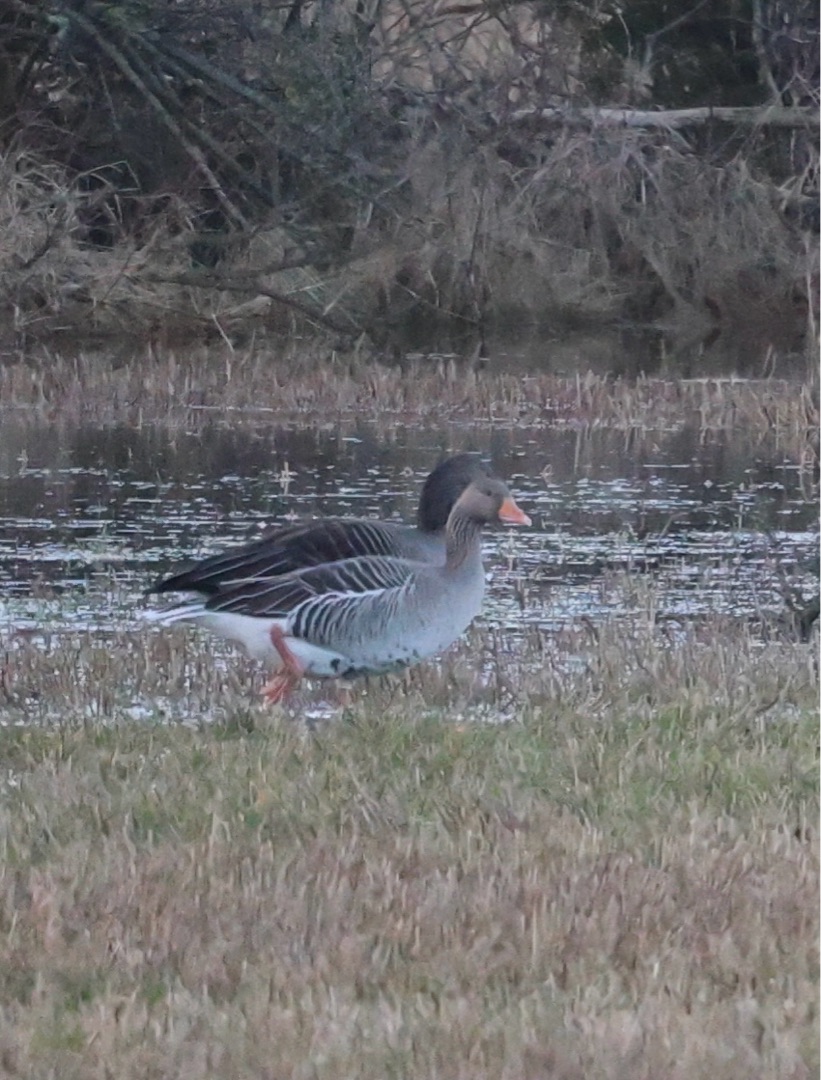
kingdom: Animalia
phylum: Chordata
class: Aves
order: Anseriformes
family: Anatidae
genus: Anser
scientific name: Anser anser
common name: Grågås
